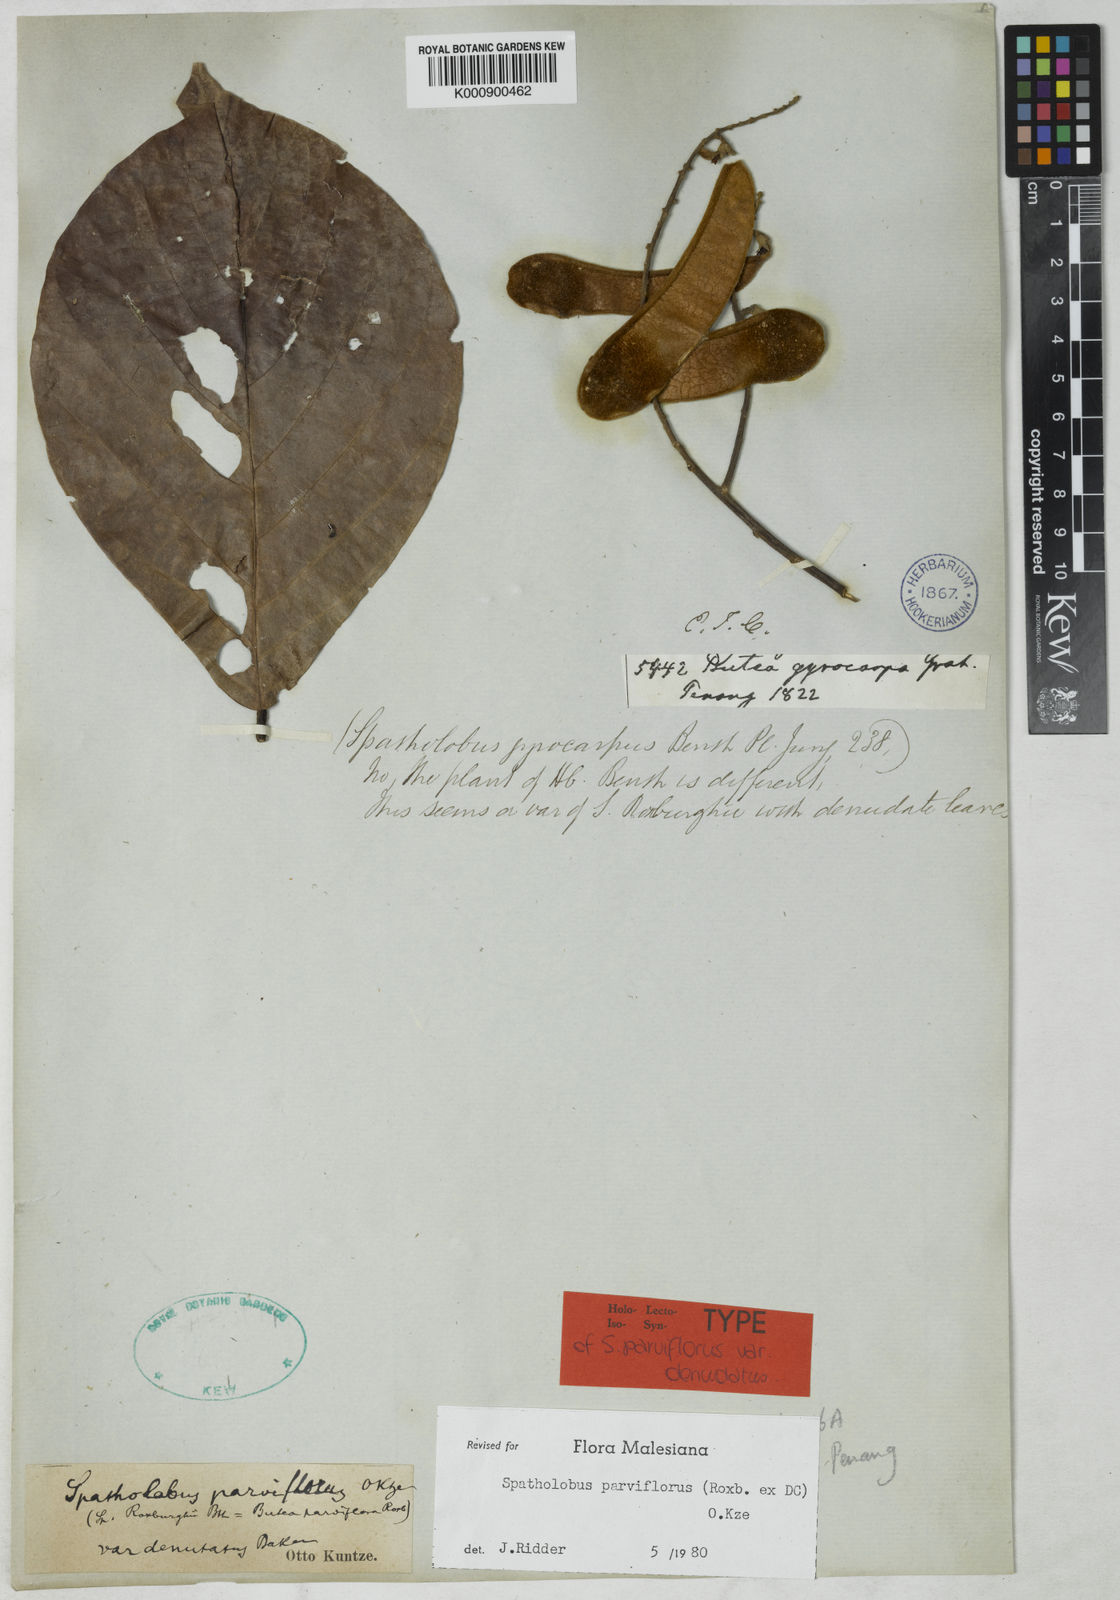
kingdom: Plantae
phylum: Tracheophyta
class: Magnoliopsida
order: Fabales
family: Fabaceae
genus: Spatholobus
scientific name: Spatholobus parviflorus
